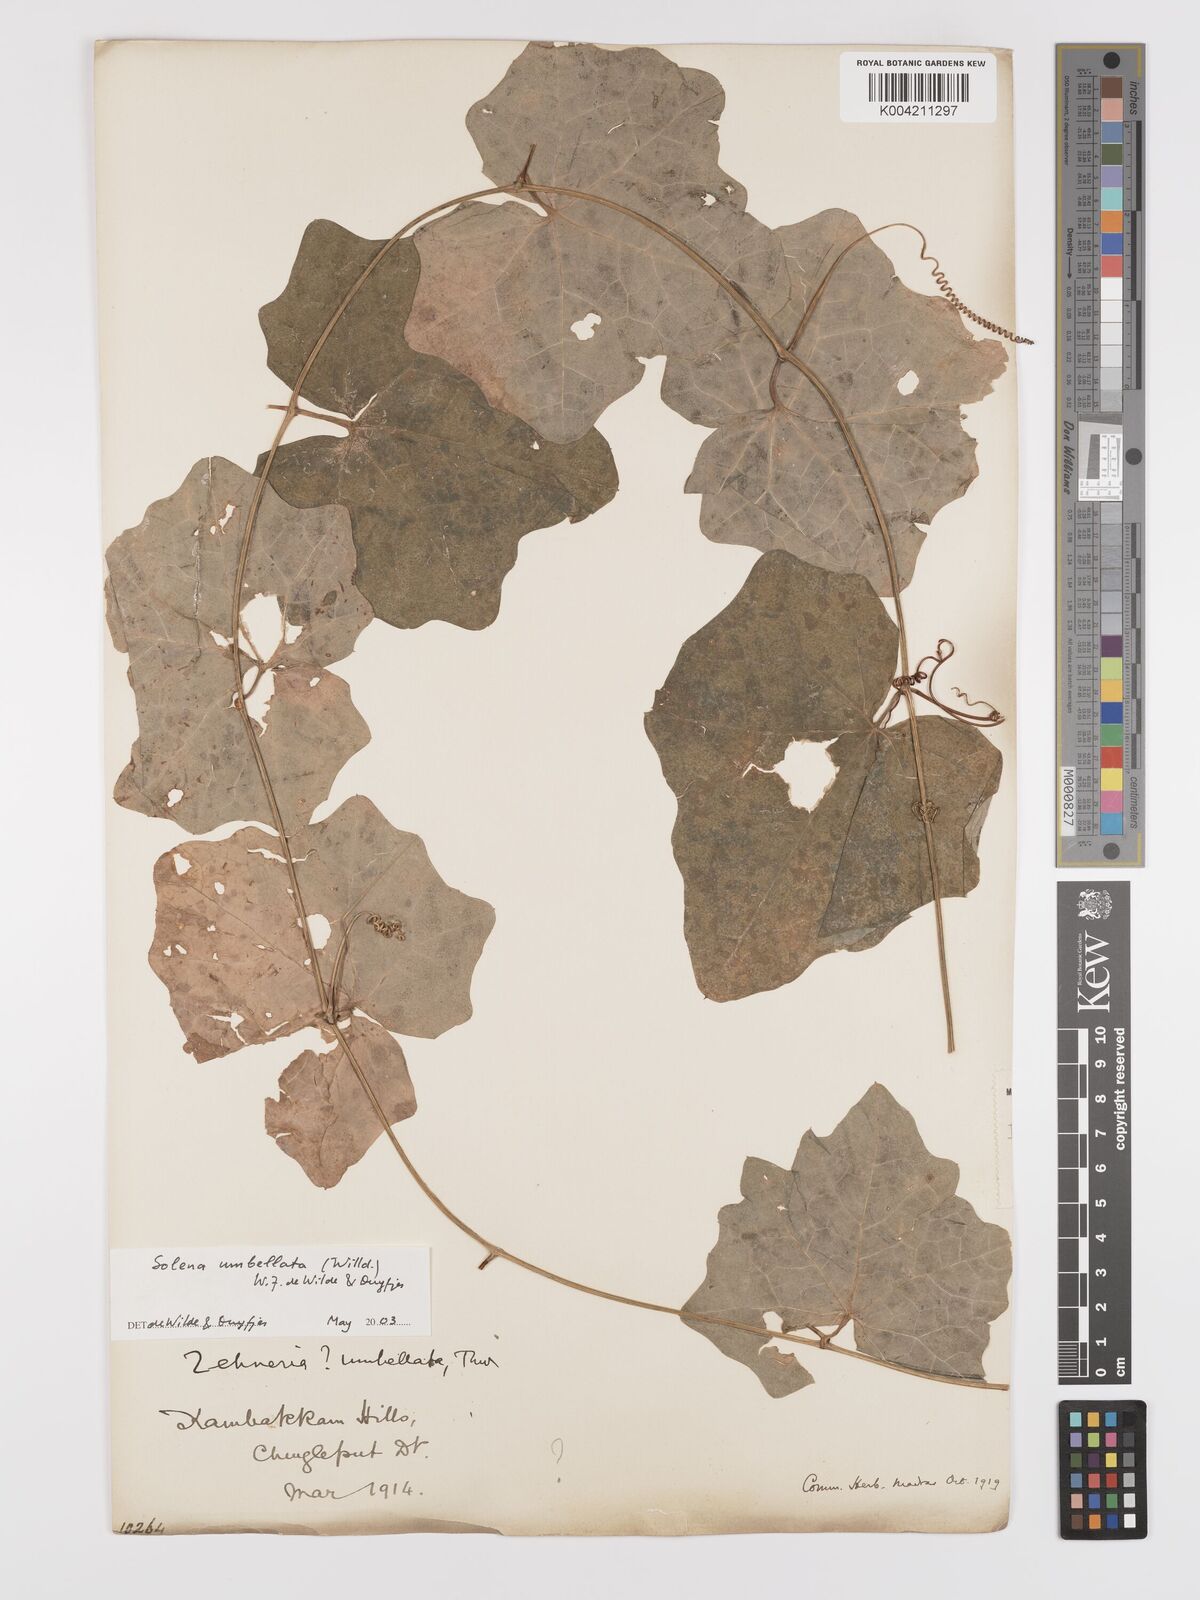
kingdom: Plantae
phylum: Tracheophyta
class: Magnoliopsida
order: Cucurbitales
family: Cucurbitaceae
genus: Solena
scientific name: Solena amplexicaulis
